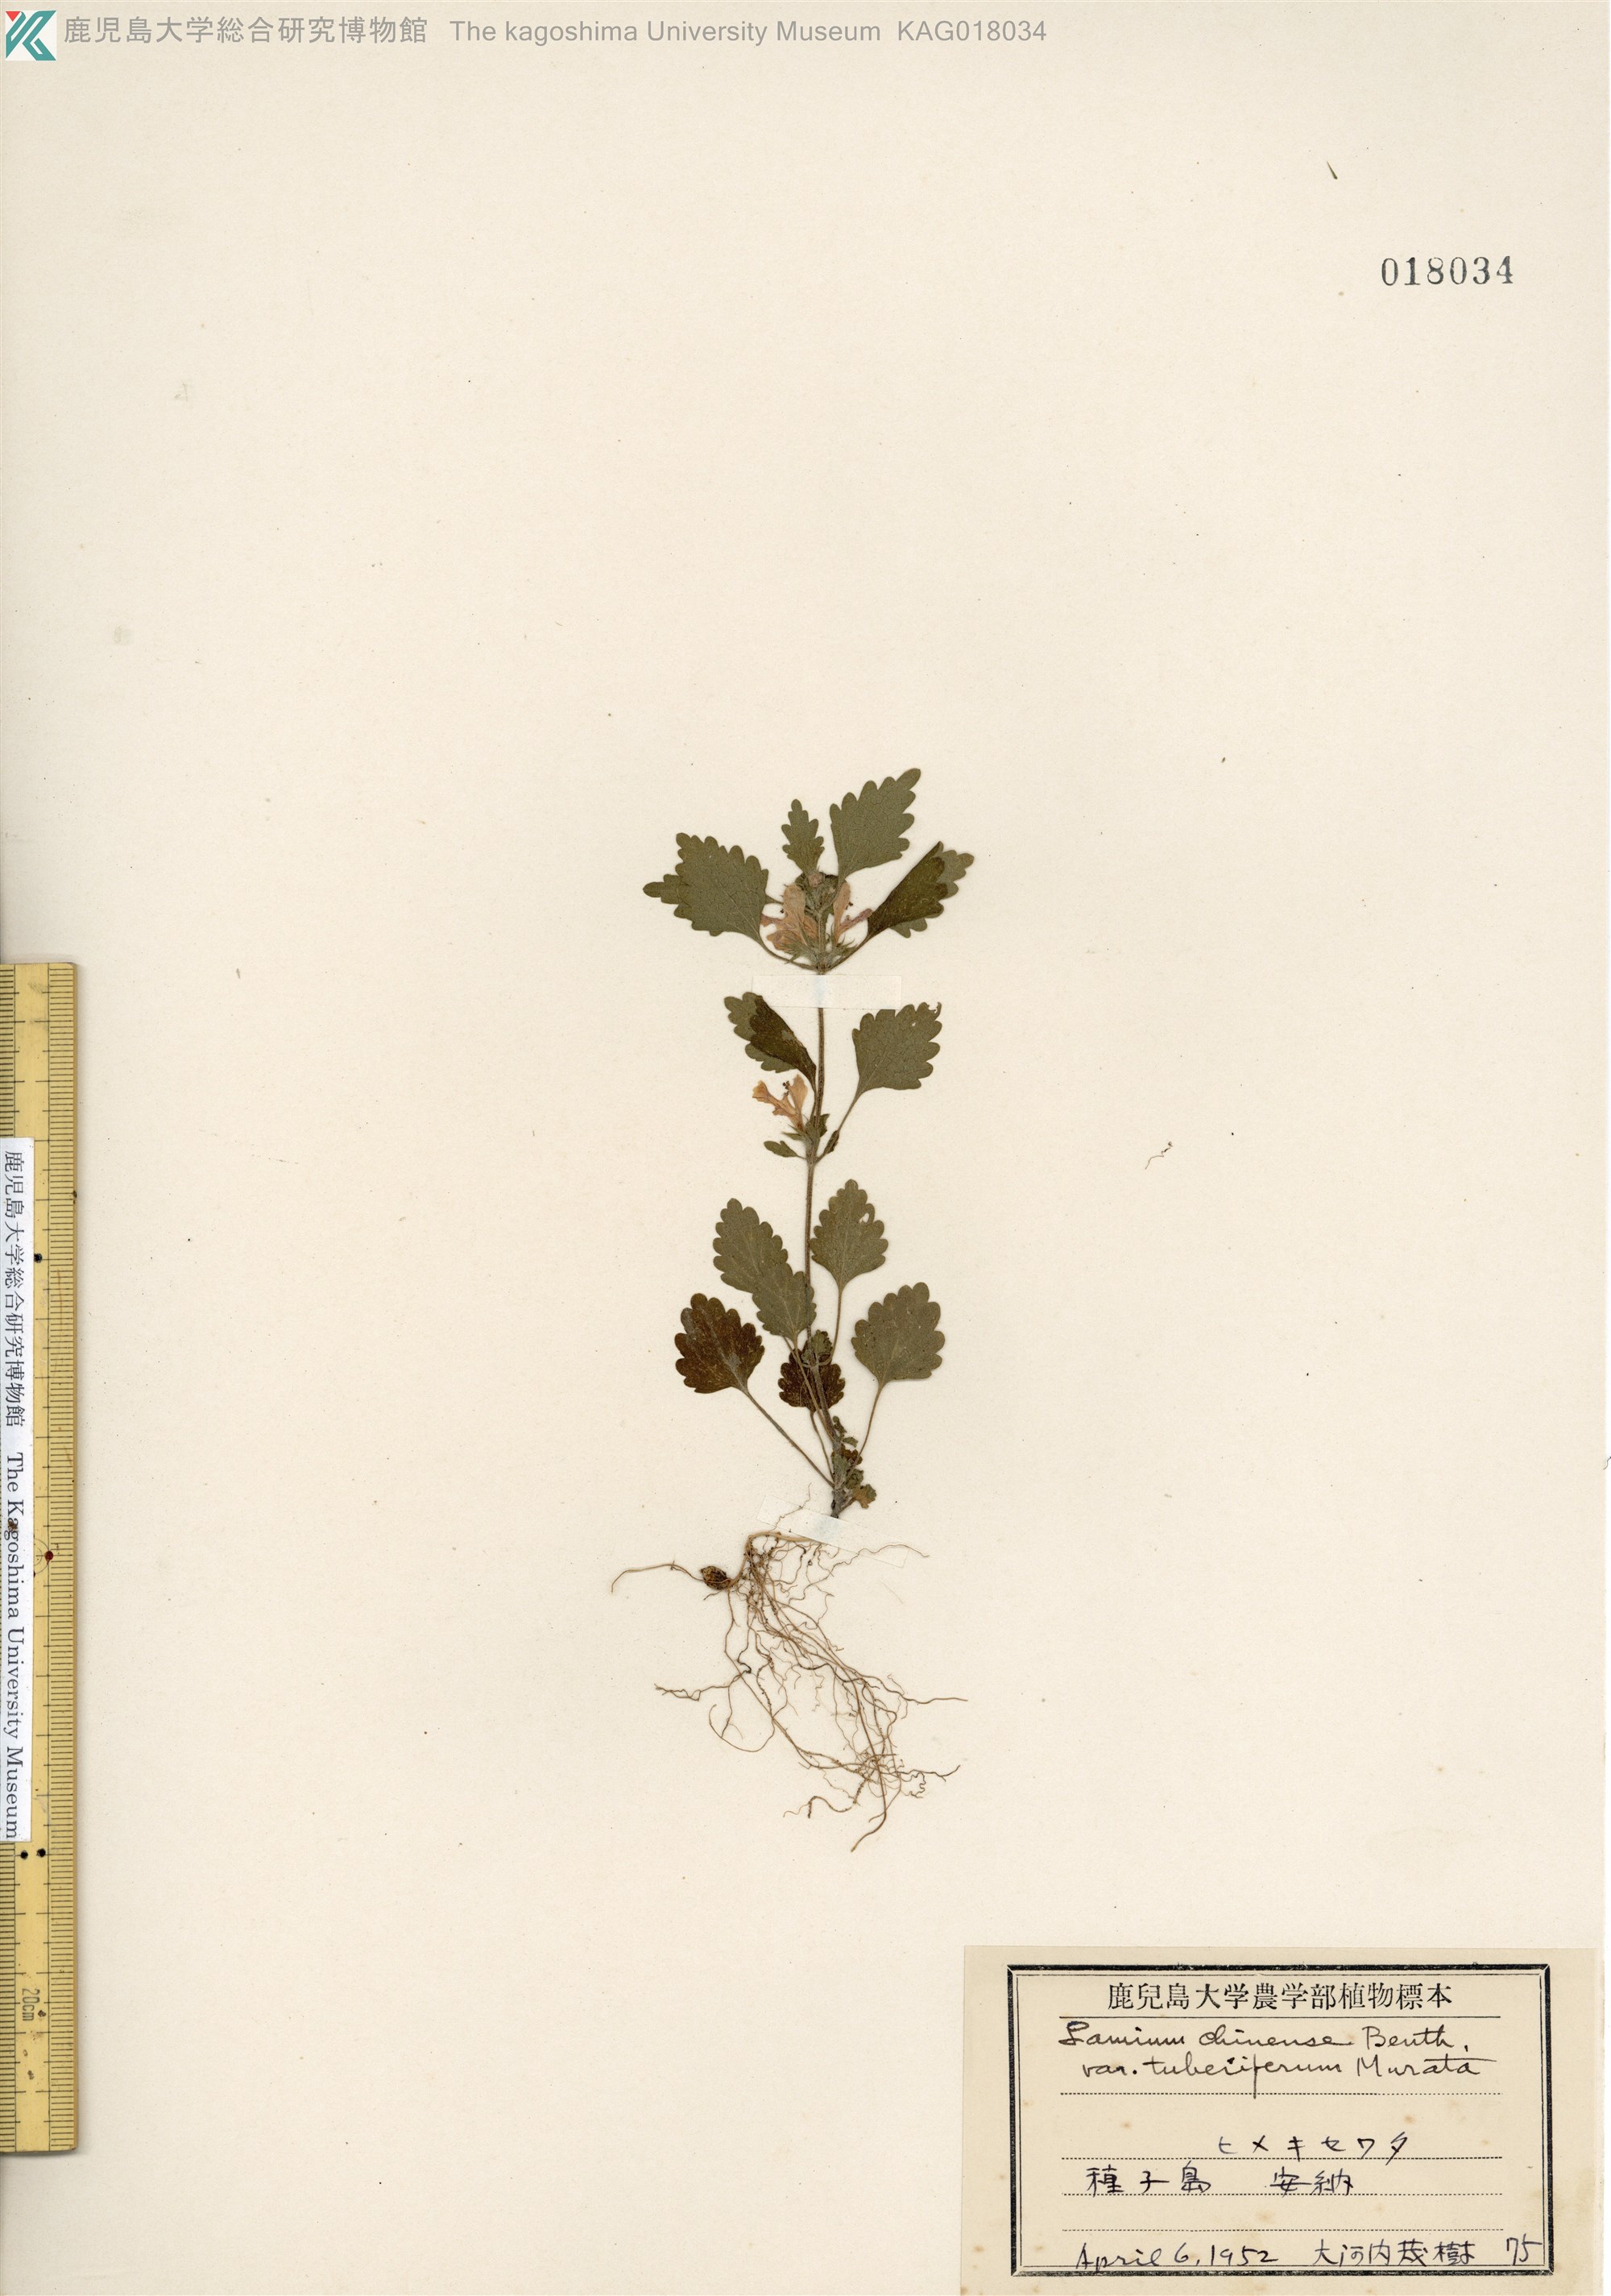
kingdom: Plantae
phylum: Tracheophyta
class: Magnoliopsida
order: Lamiales
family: Lamiaceae
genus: Matsumurella
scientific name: Matsumurella tuberifera
